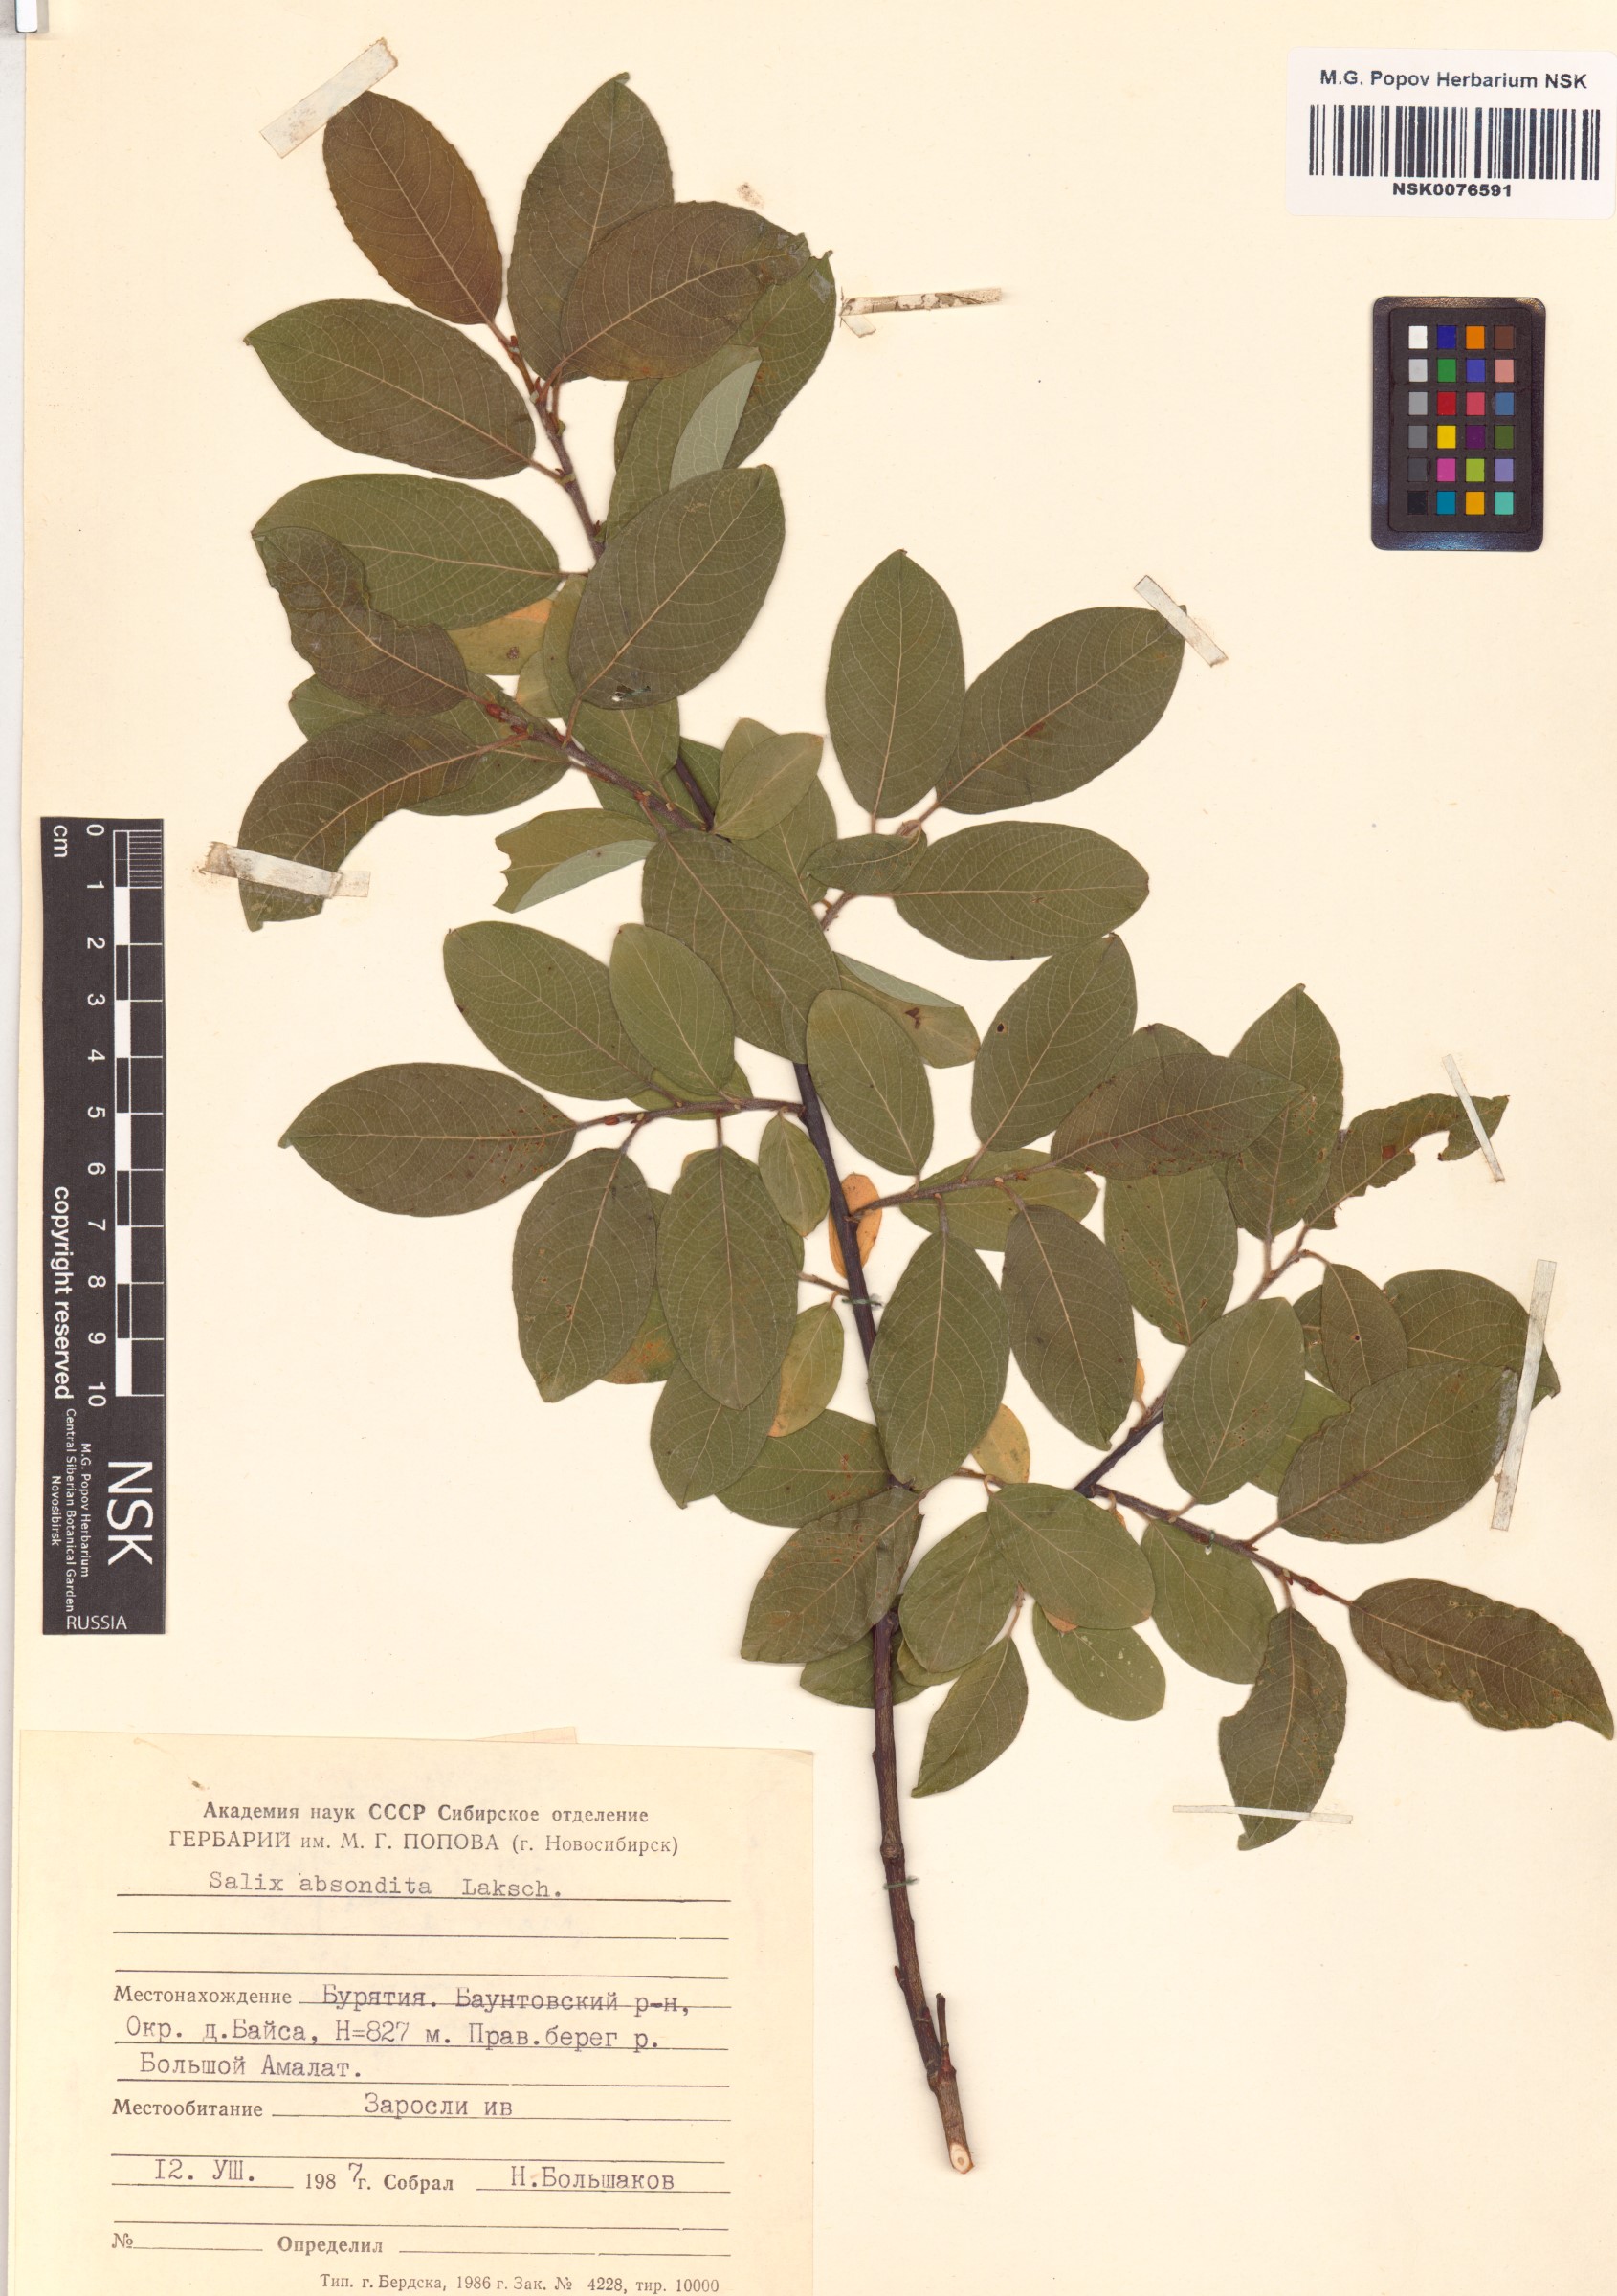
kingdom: Plantae
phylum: Tracheophyta
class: Magnoliopsida
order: Malpighiales
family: Salicaceae
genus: Salix
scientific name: Salix abscondita
